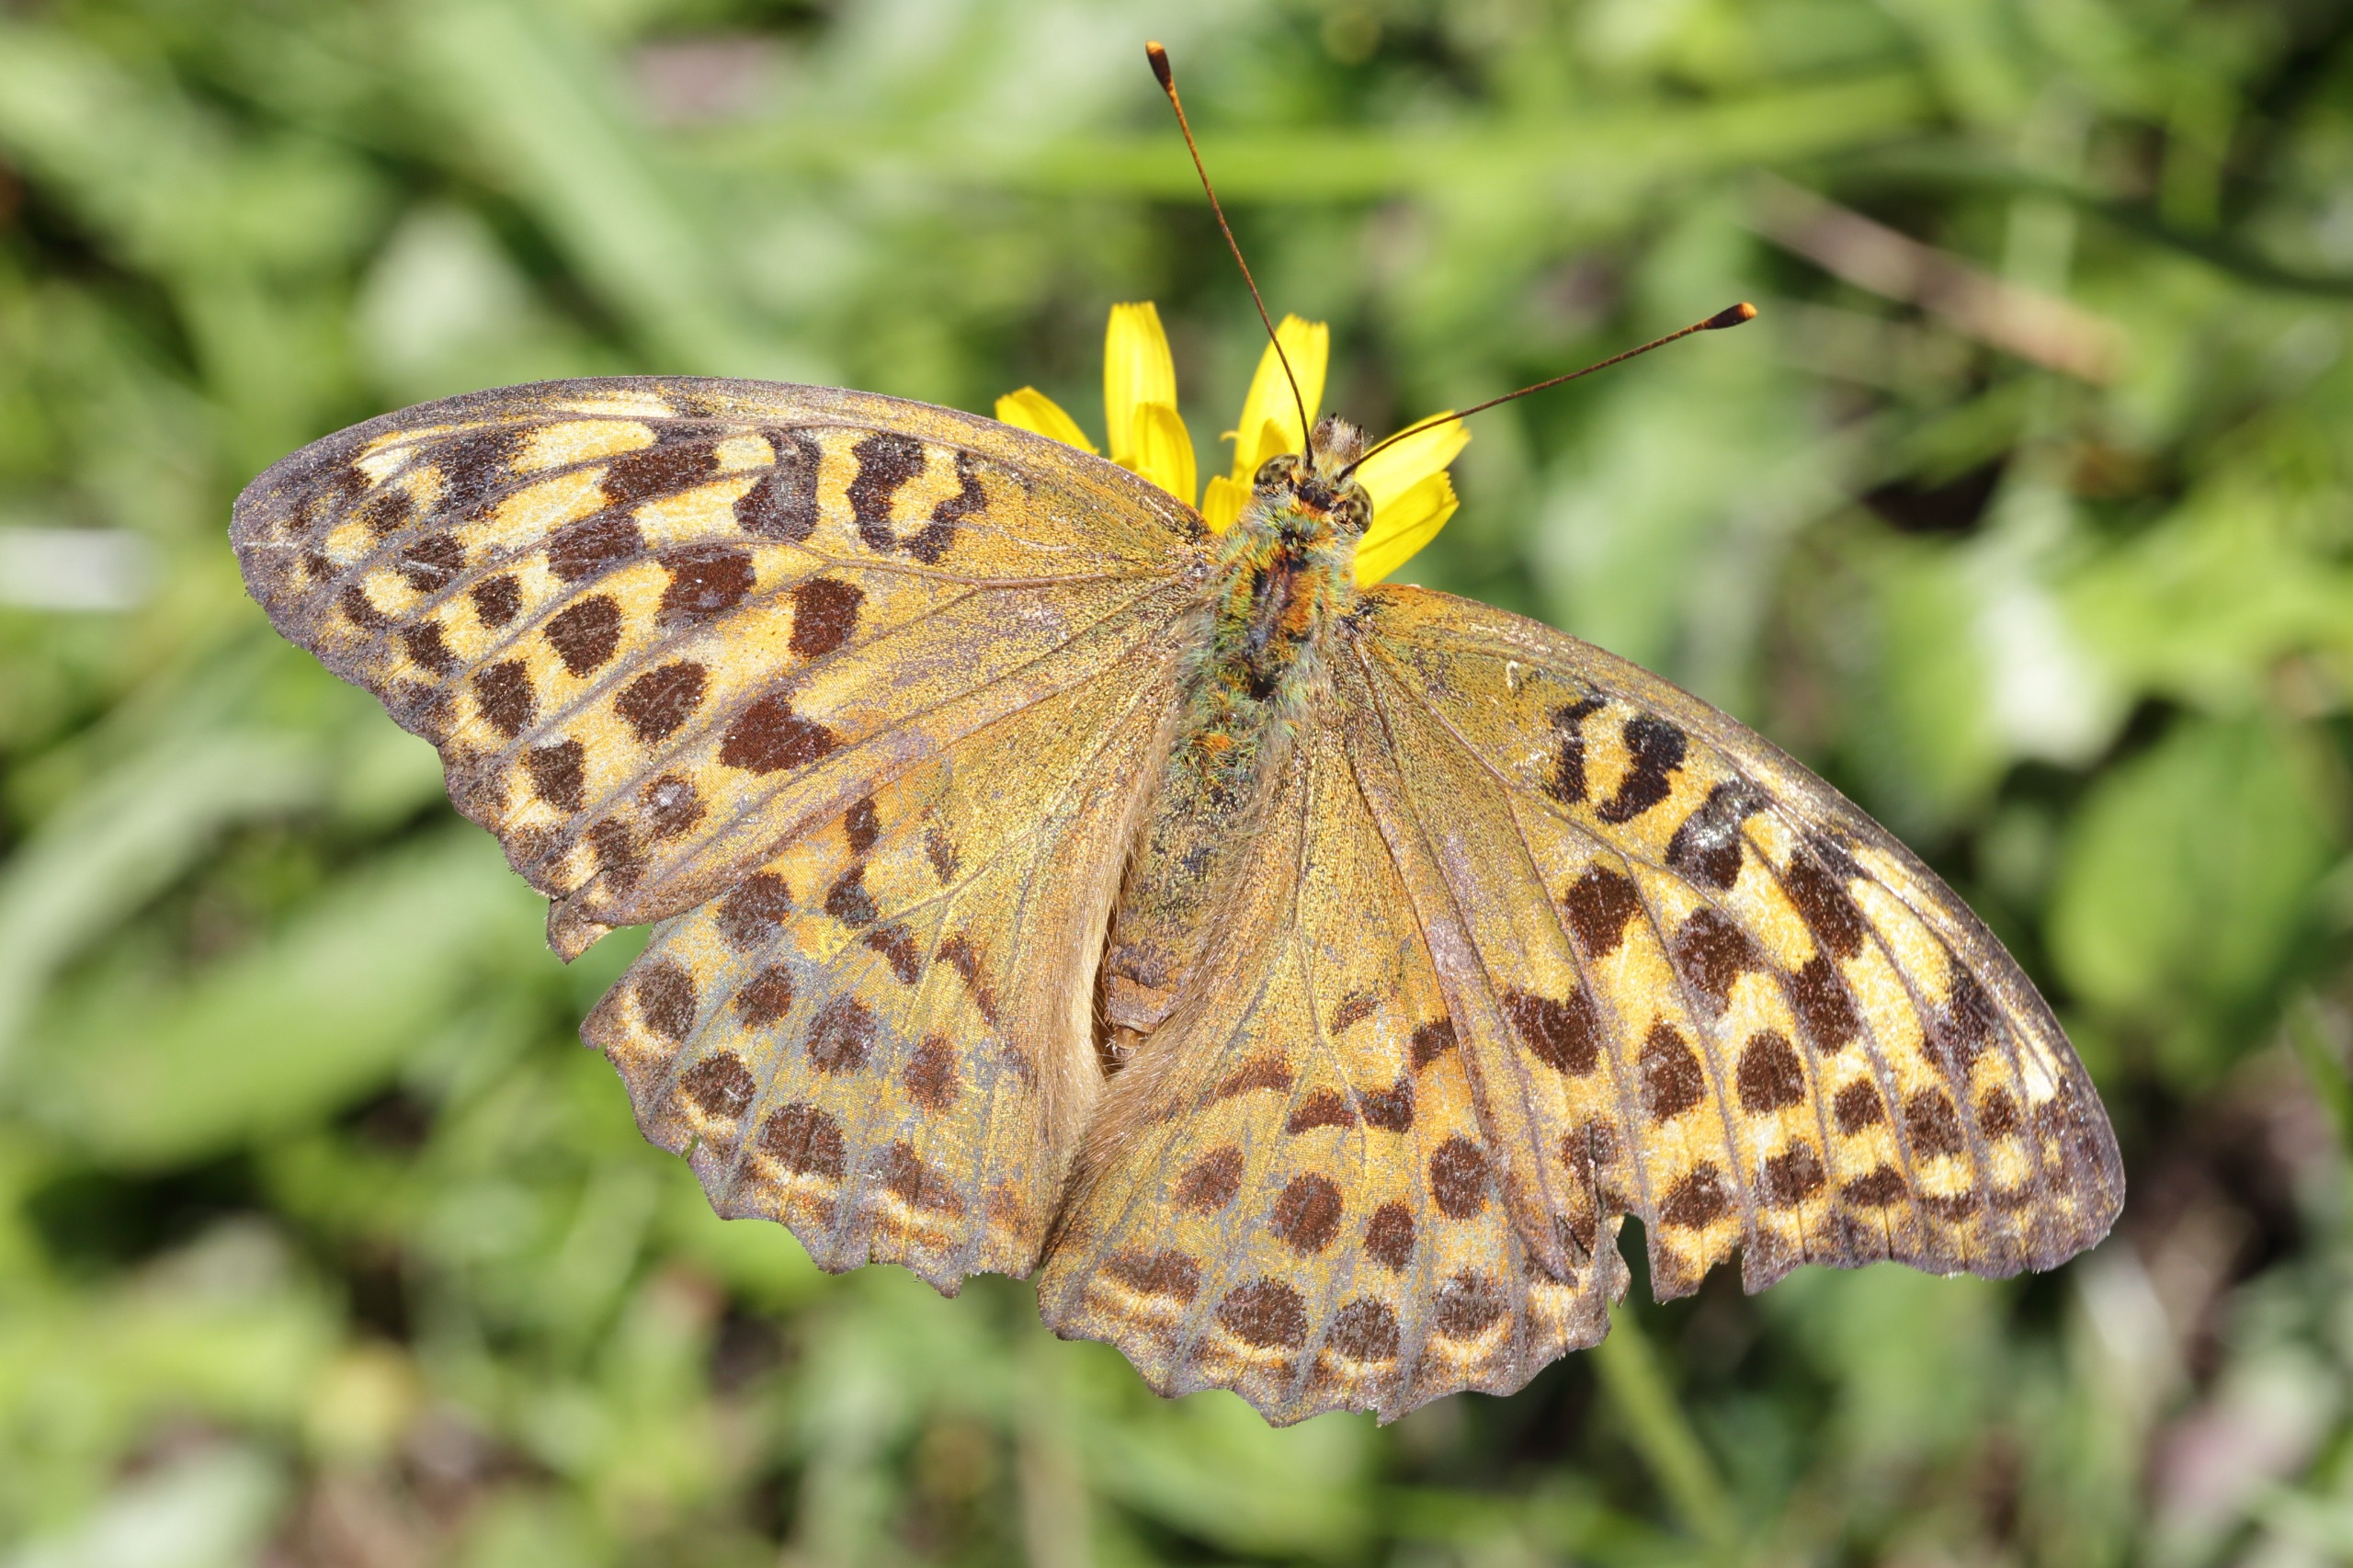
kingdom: Animalia
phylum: Arthropoda
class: Insecta
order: Lepidoptera
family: Nymphalidae
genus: Argynnis
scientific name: Argynnis paphia
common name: Kejserkåbe
